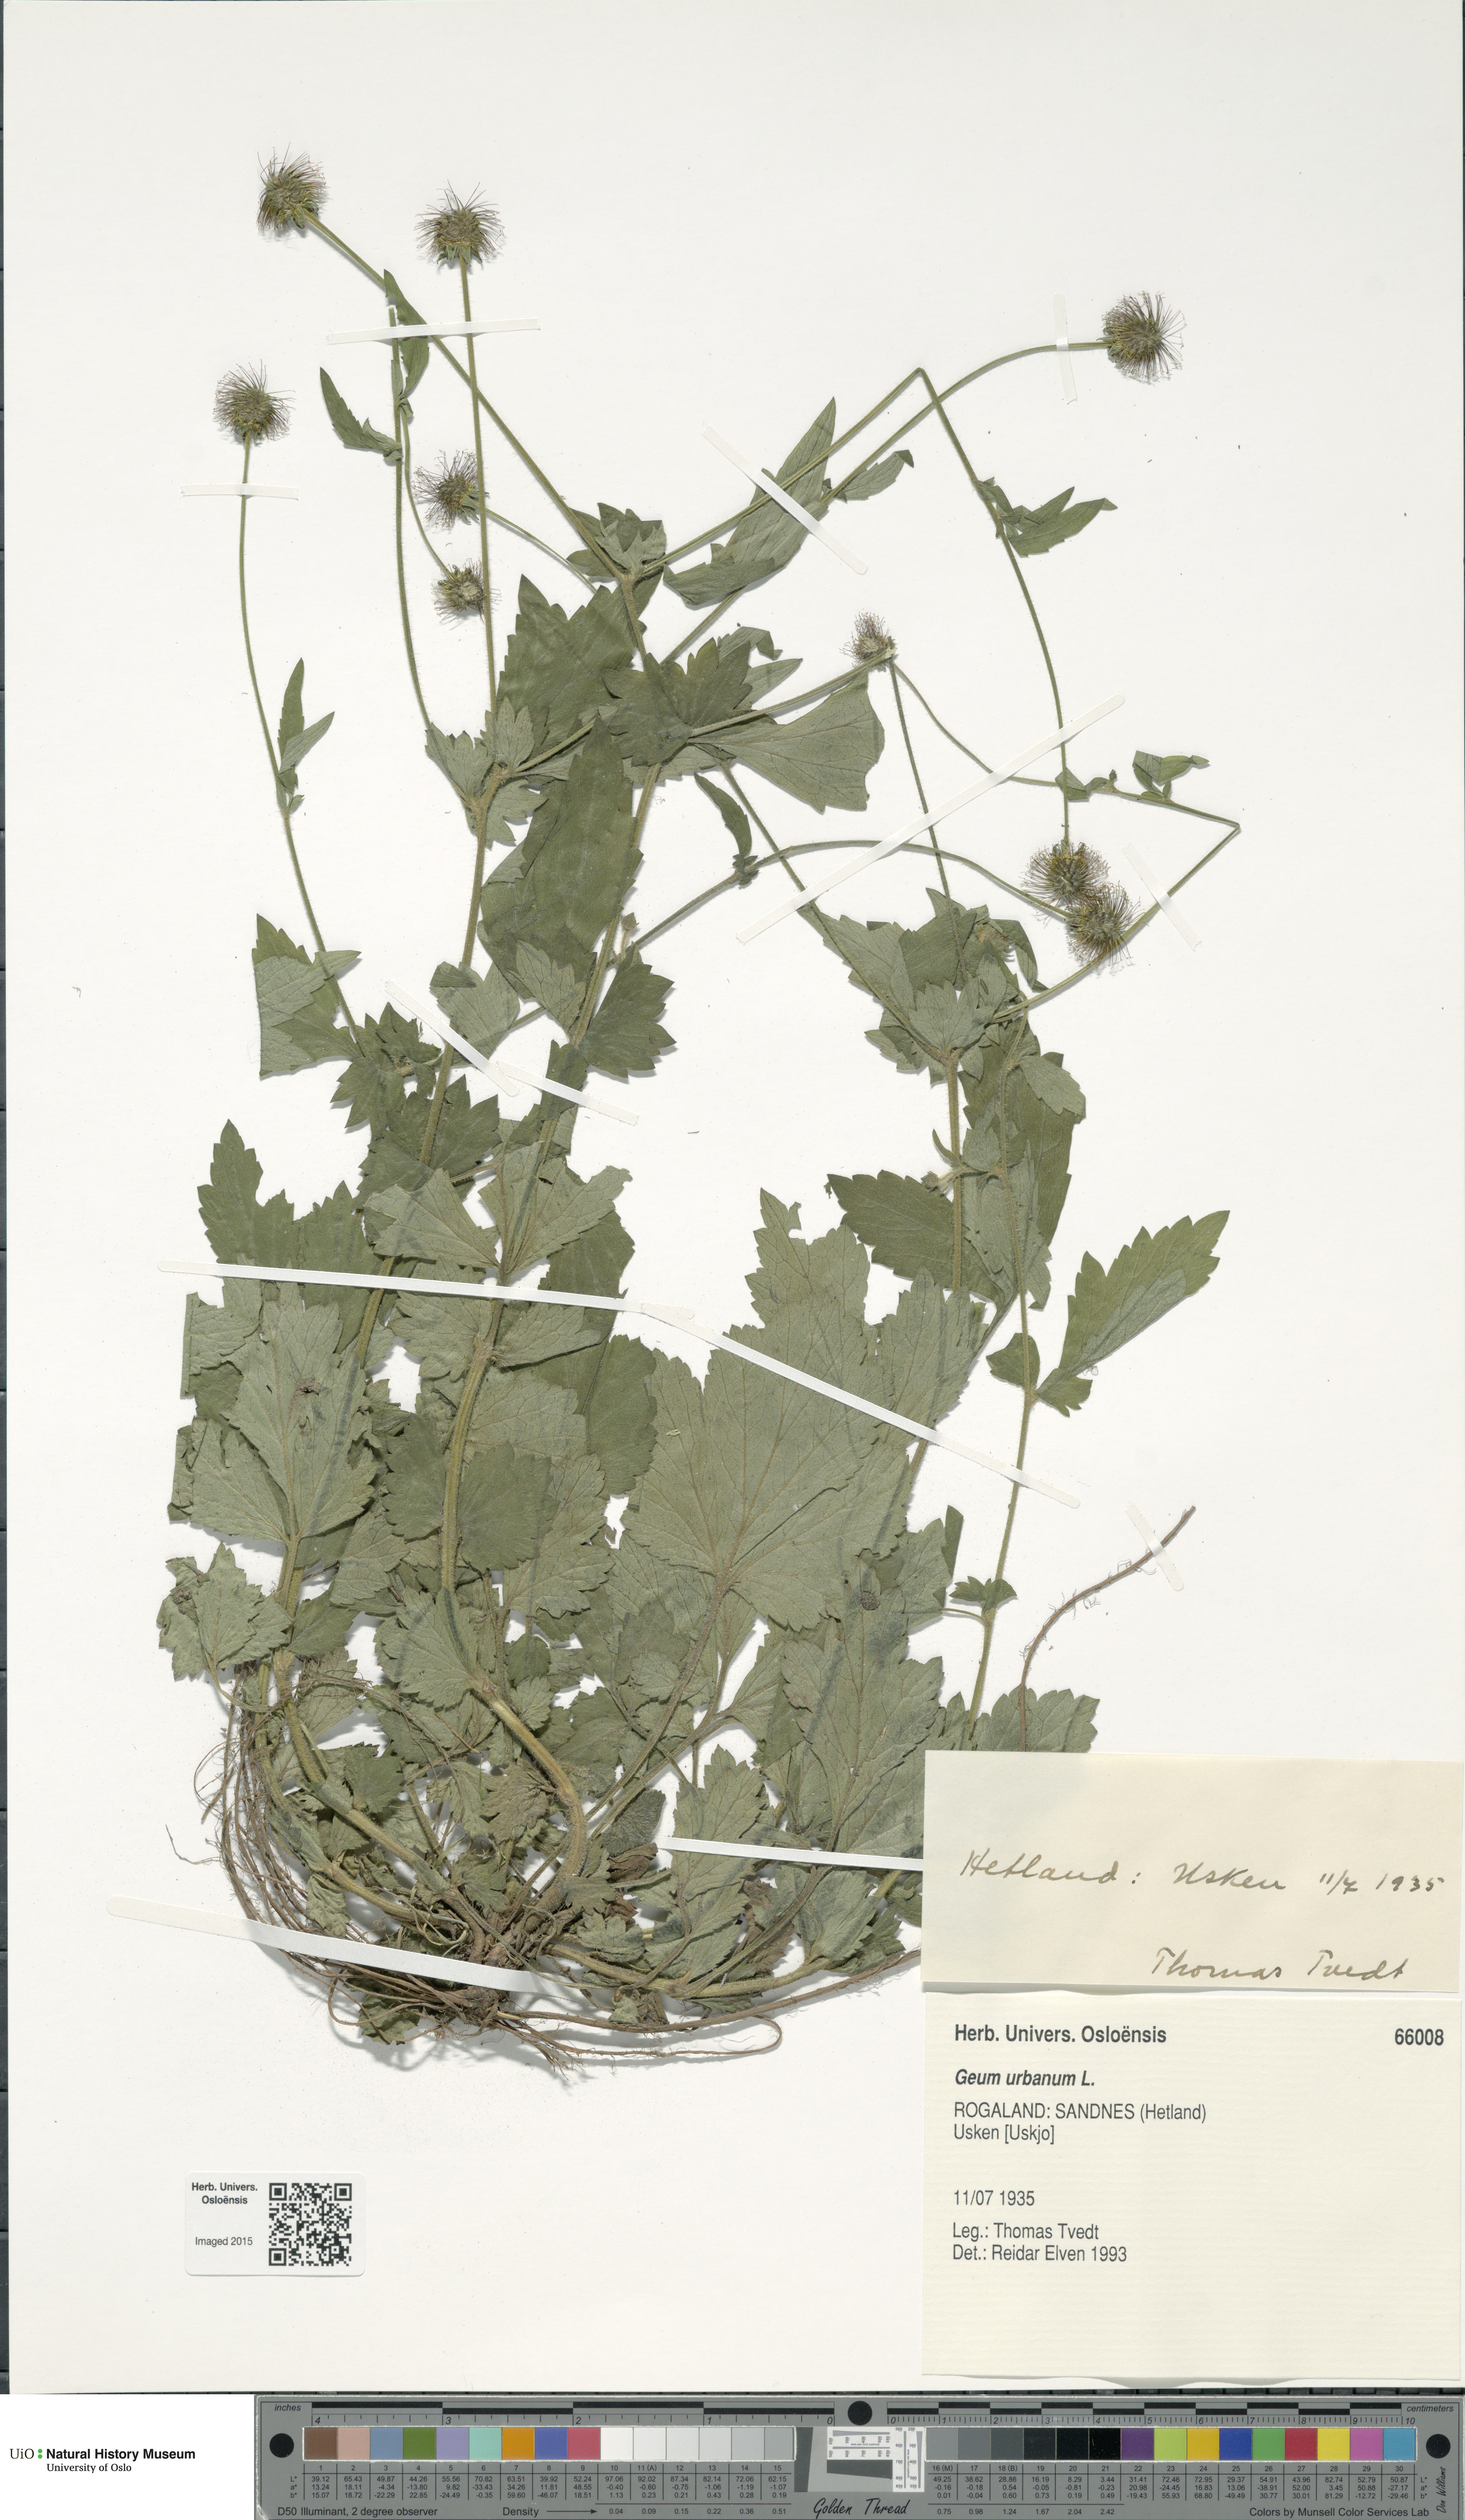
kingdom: Plantae
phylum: Tracheophyta
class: Magnoliopsida
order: Rosales
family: Rosaceae
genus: Geum
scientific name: Geum urbanum
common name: Wood avens
